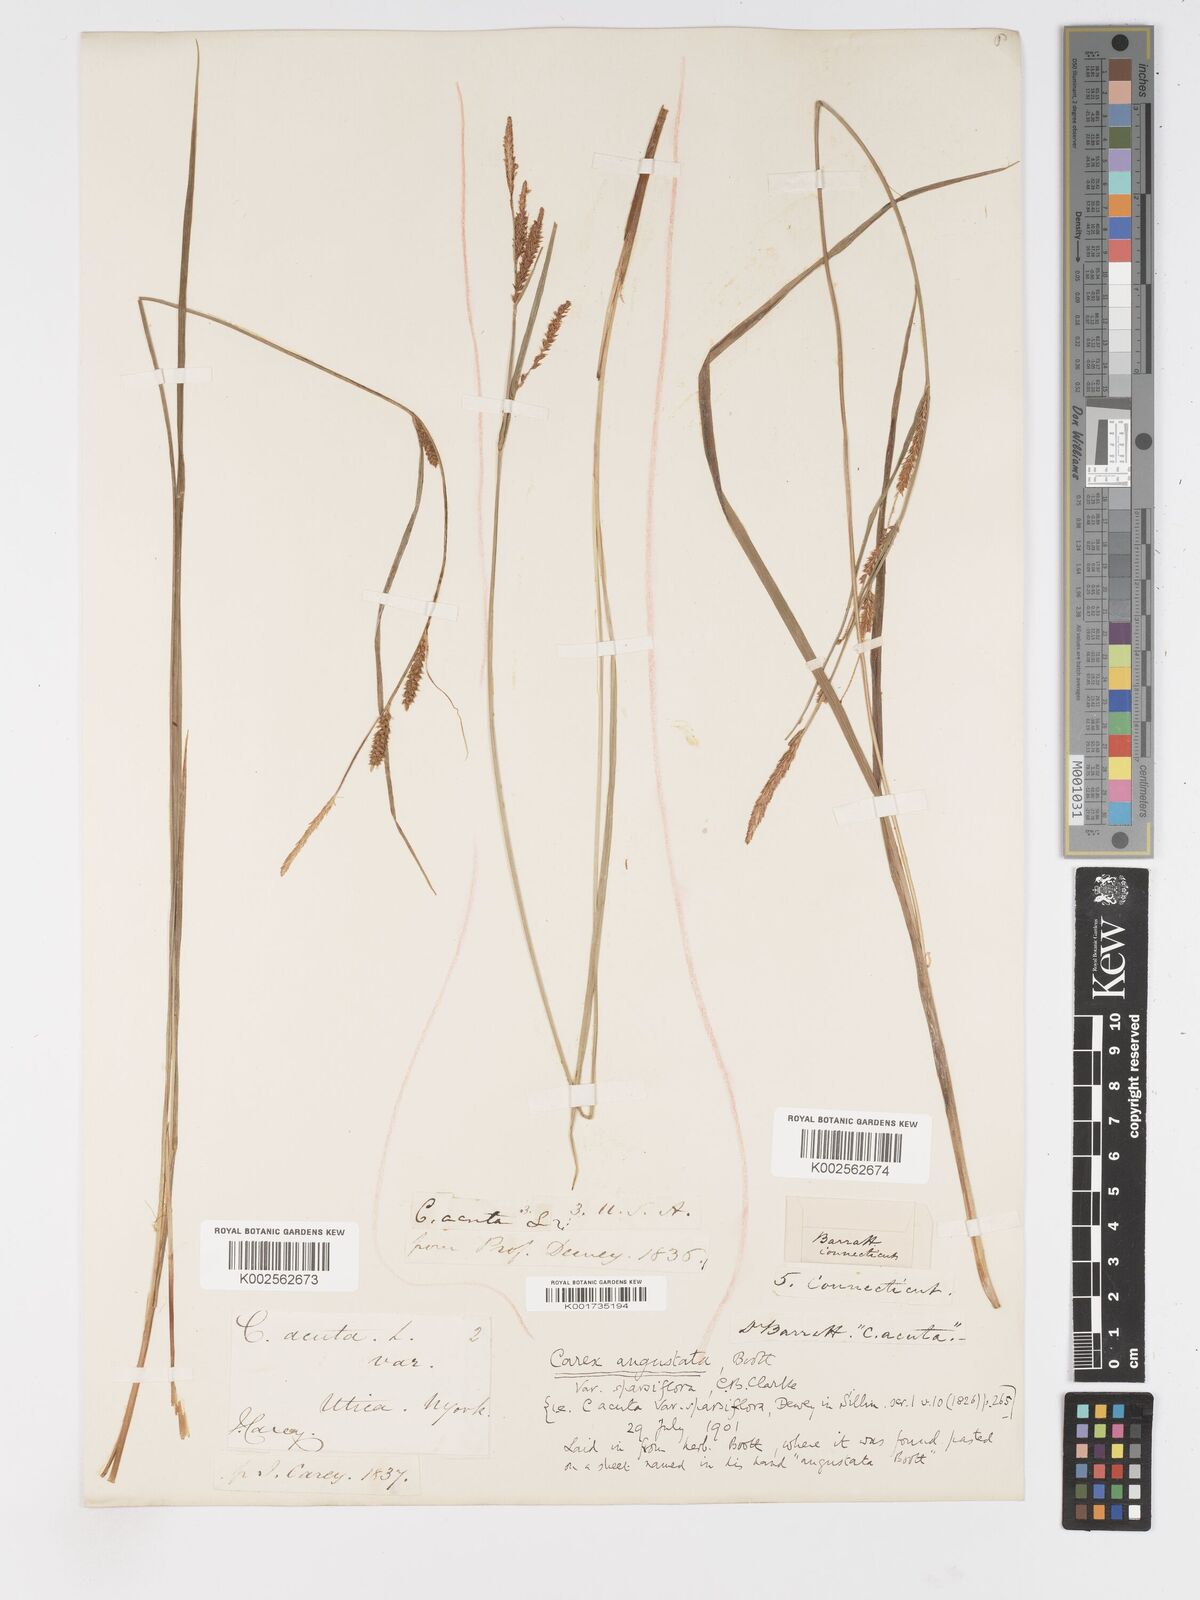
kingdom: Plantae
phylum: Tracheophyta
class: Liliopsida
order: Poales
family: Cyperaceae
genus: Carex
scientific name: Carex stricta
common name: Hummock sedge
